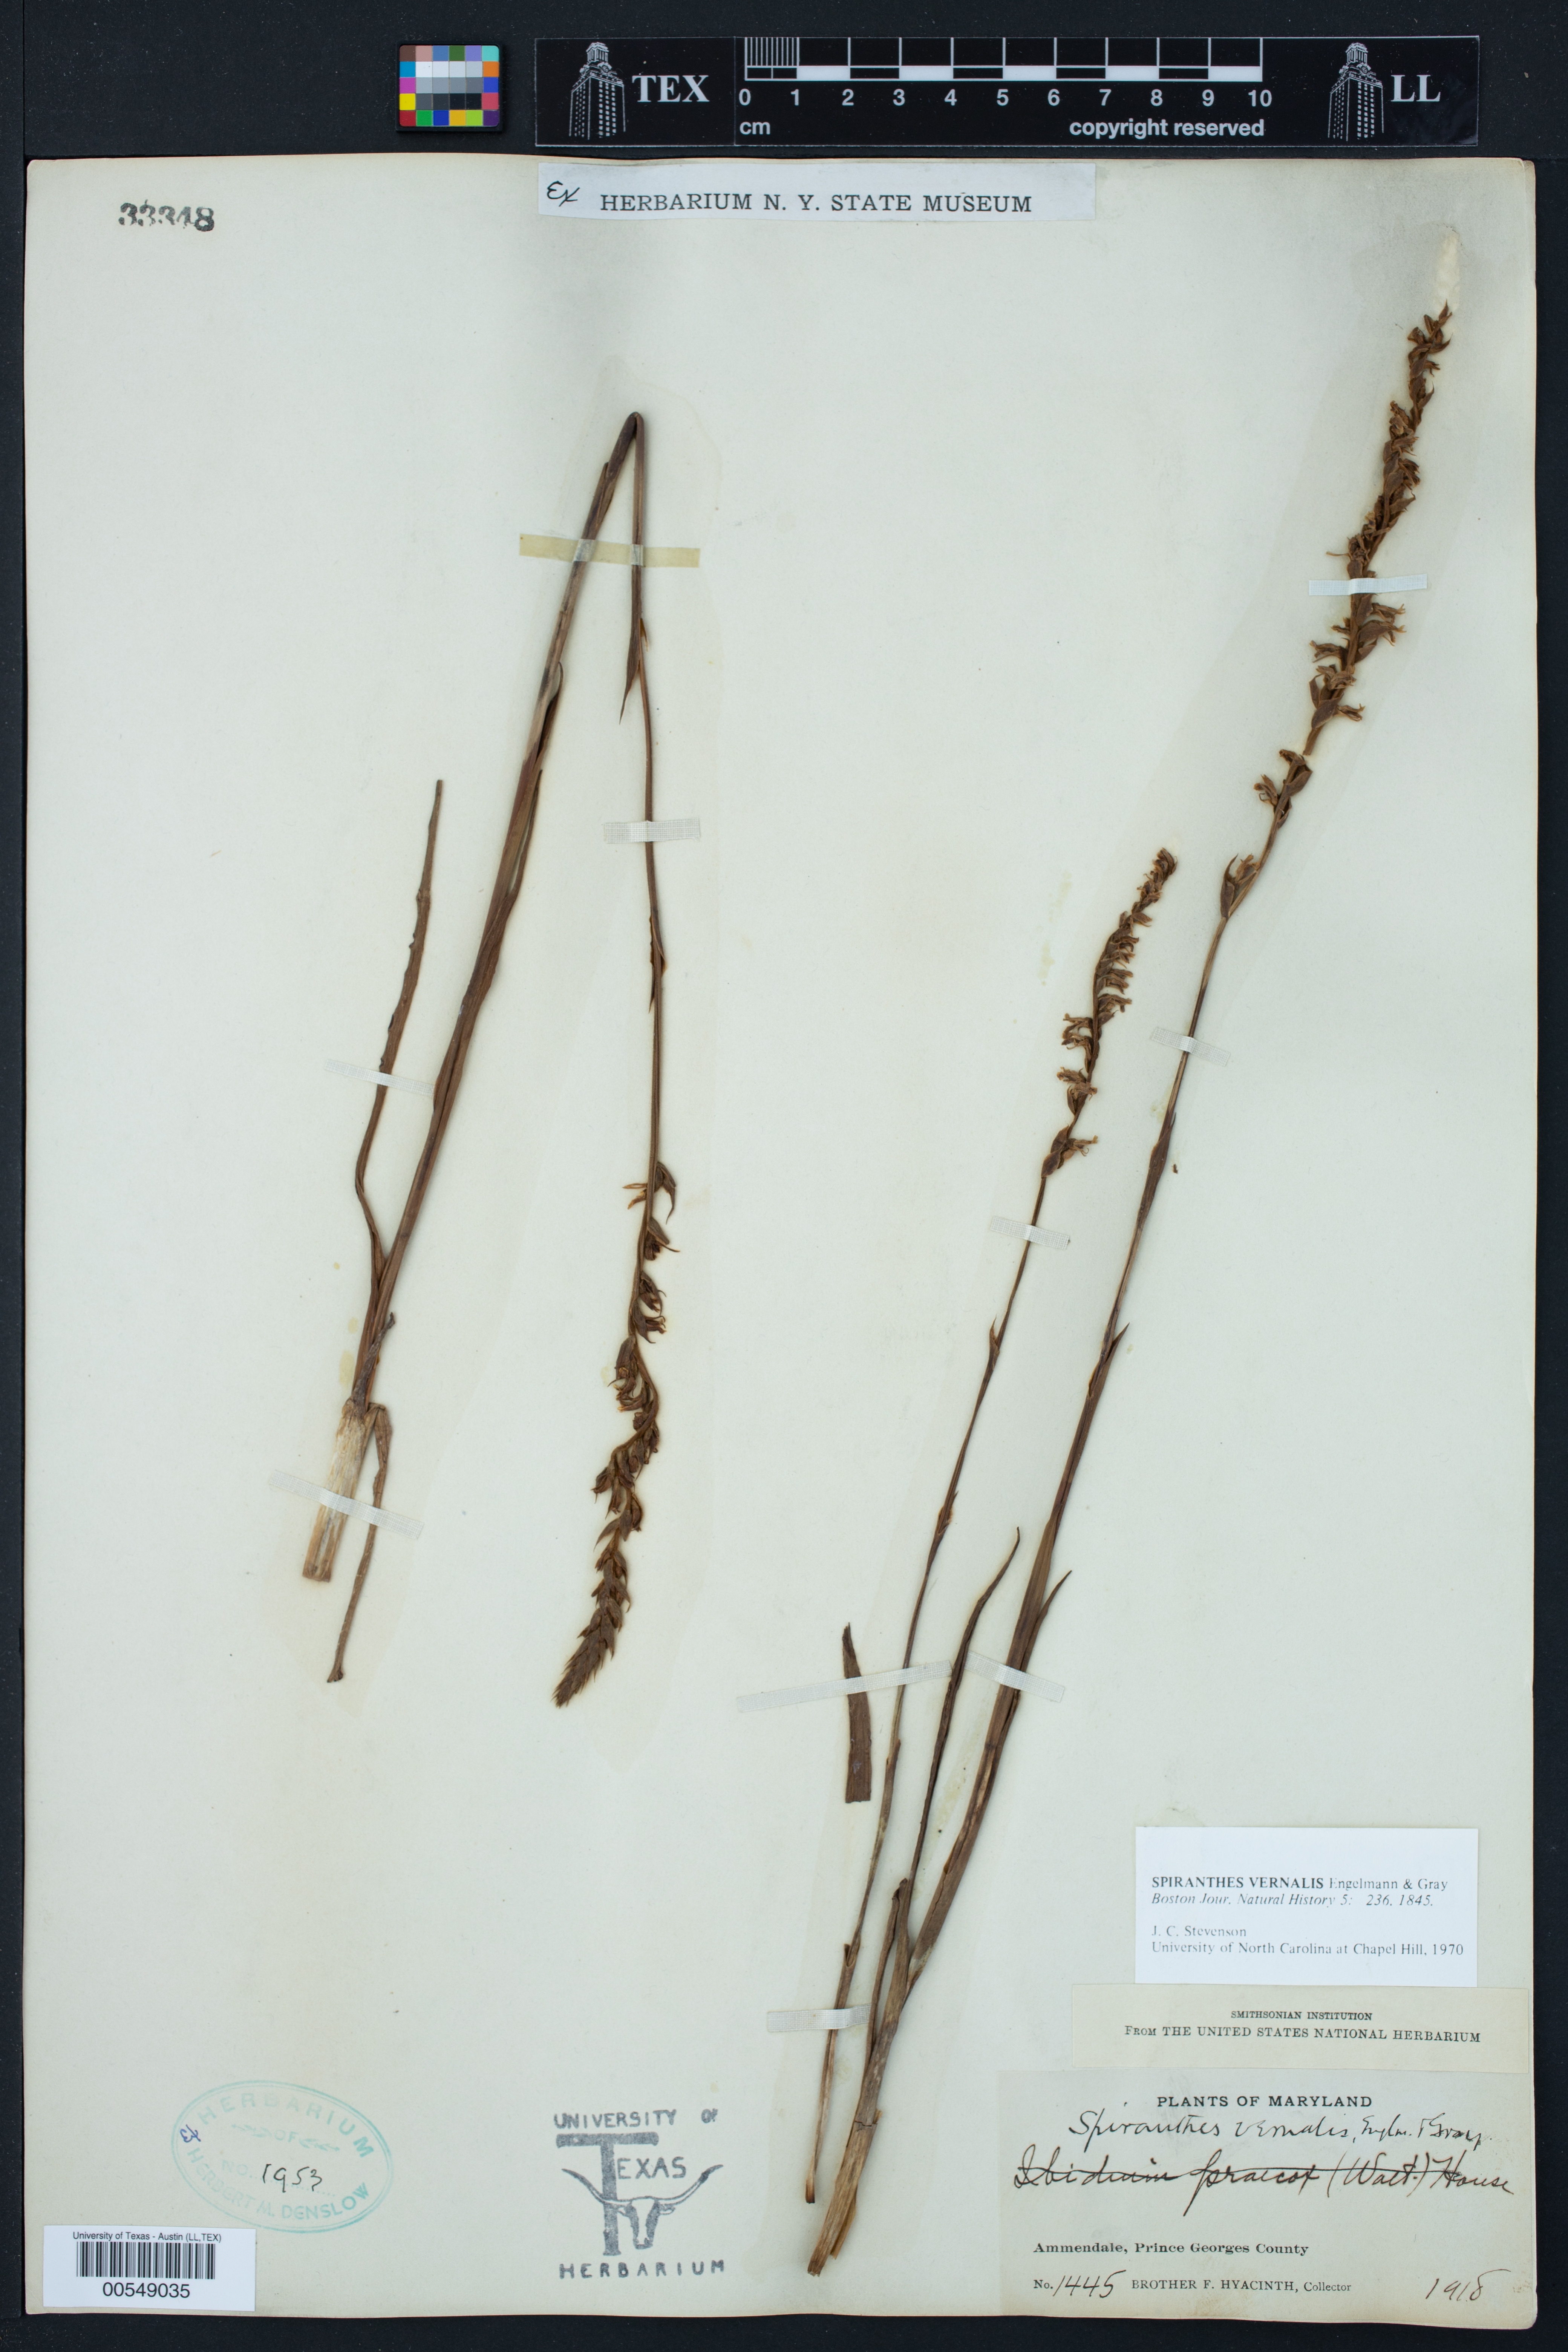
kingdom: Plantae
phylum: Tracheophyta
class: Liliopsida
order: Asparagales
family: Orchidaceae
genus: Spiranthes
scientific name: Spiranthes vernalis
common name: Spring ladies'-tresses
